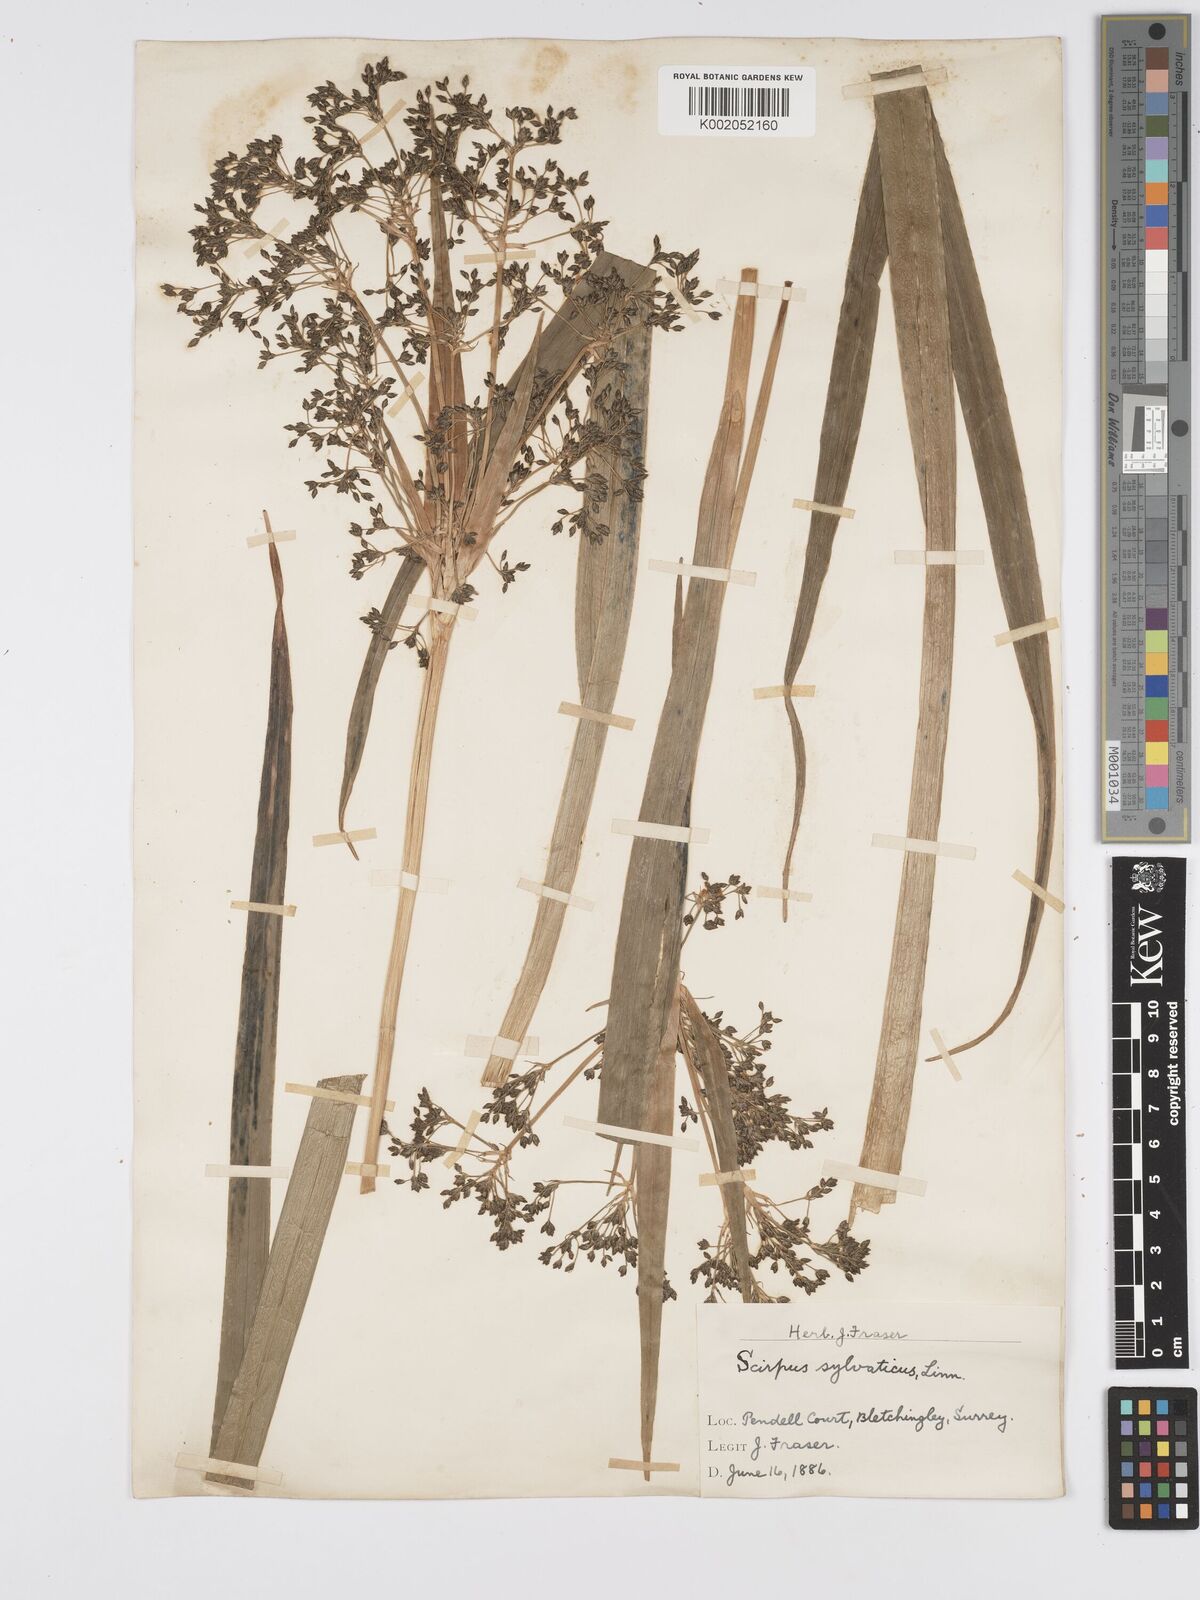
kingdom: Plantae
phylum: Tracheophyta
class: Liliopsida
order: Poales
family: Cyperaceae
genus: Scirpus
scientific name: Scirpus sylvaticus
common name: Wood club-rush
